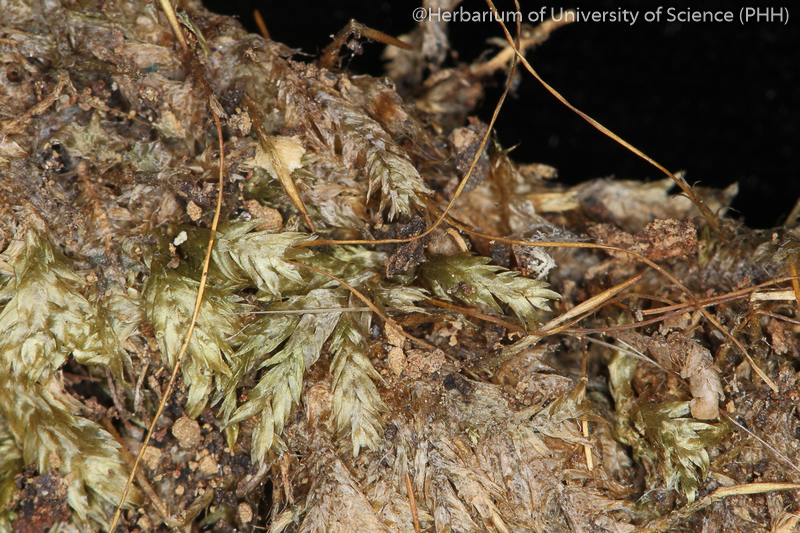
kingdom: Plantae
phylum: Bryophyta
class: Bryopsida
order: Hypnales
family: Entodontaceae
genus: Entodon
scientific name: Entodon plicatus
